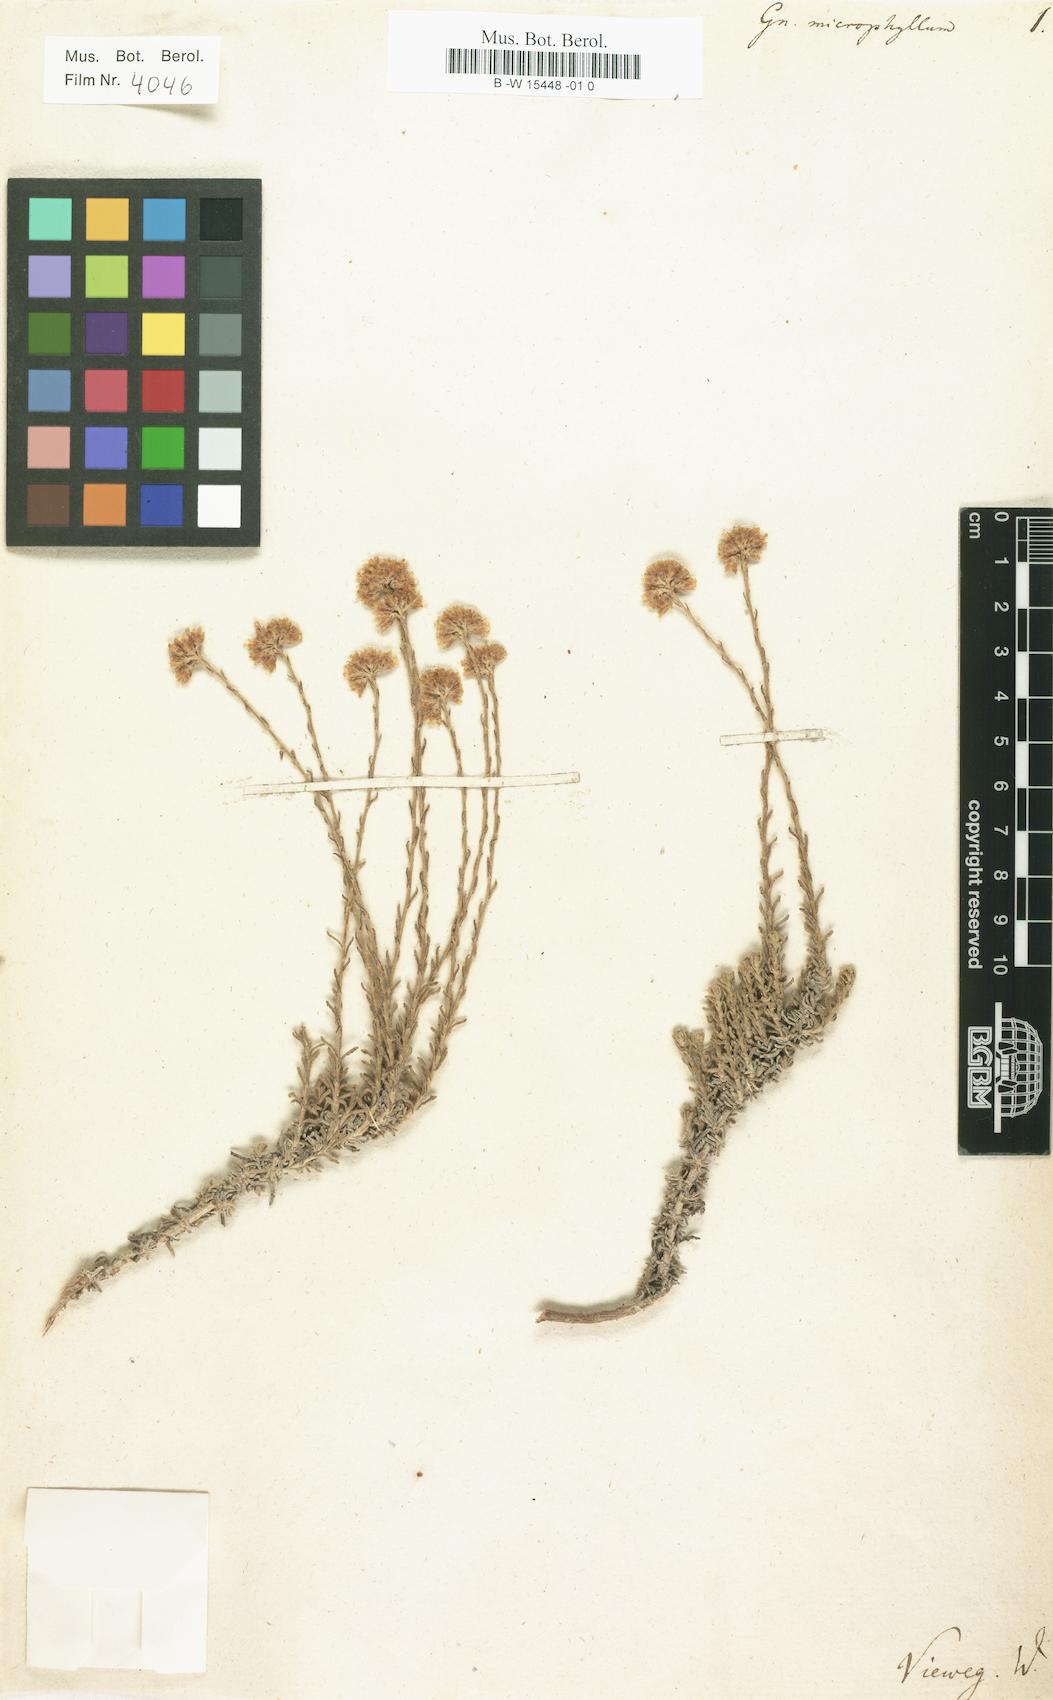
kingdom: Plantae
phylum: Tracheophyta
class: Magnoliopsida
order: Asterales
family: Asteraceae
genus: Helichrysum
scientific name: Helichrysum italicum
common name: Curryplant
